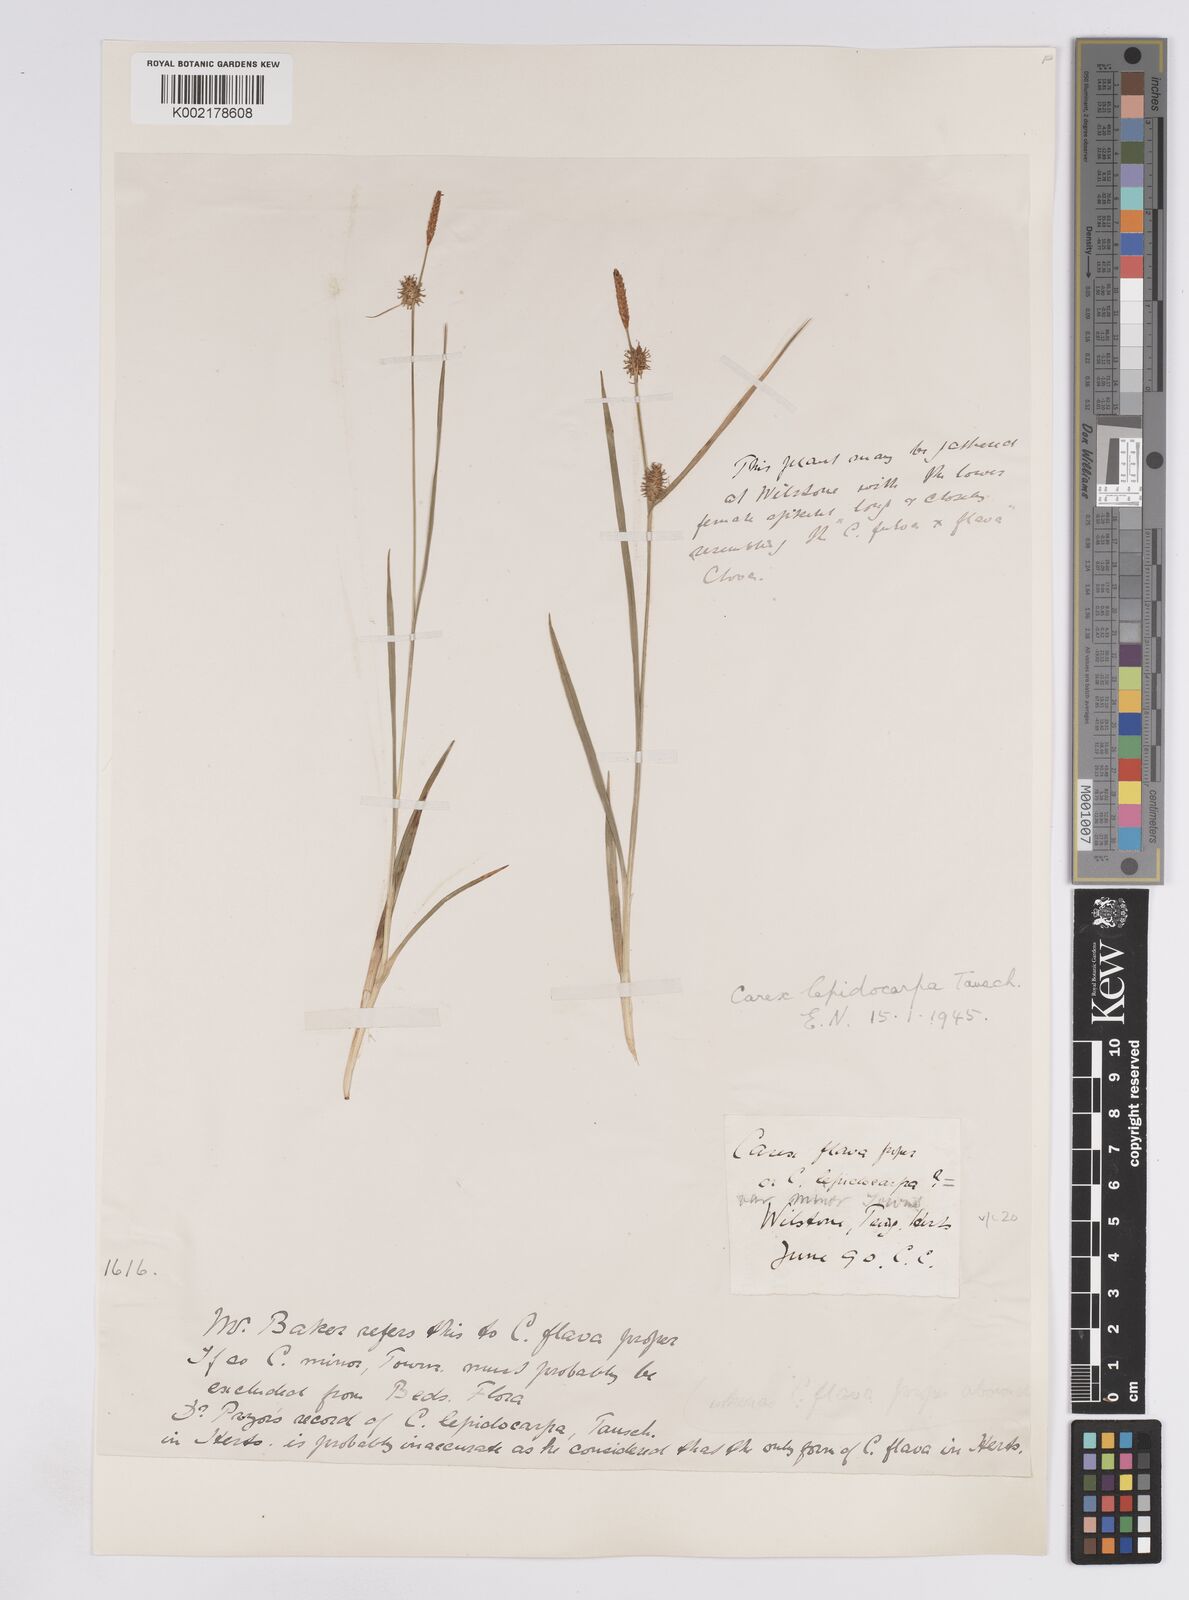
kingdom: Plantae
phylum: Tracheophyta
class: Liliopsida
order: Poales
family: Cyperaceae
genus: Carex
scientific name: Carex lepidocarpa
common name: Long-stalked yellow-sedge
